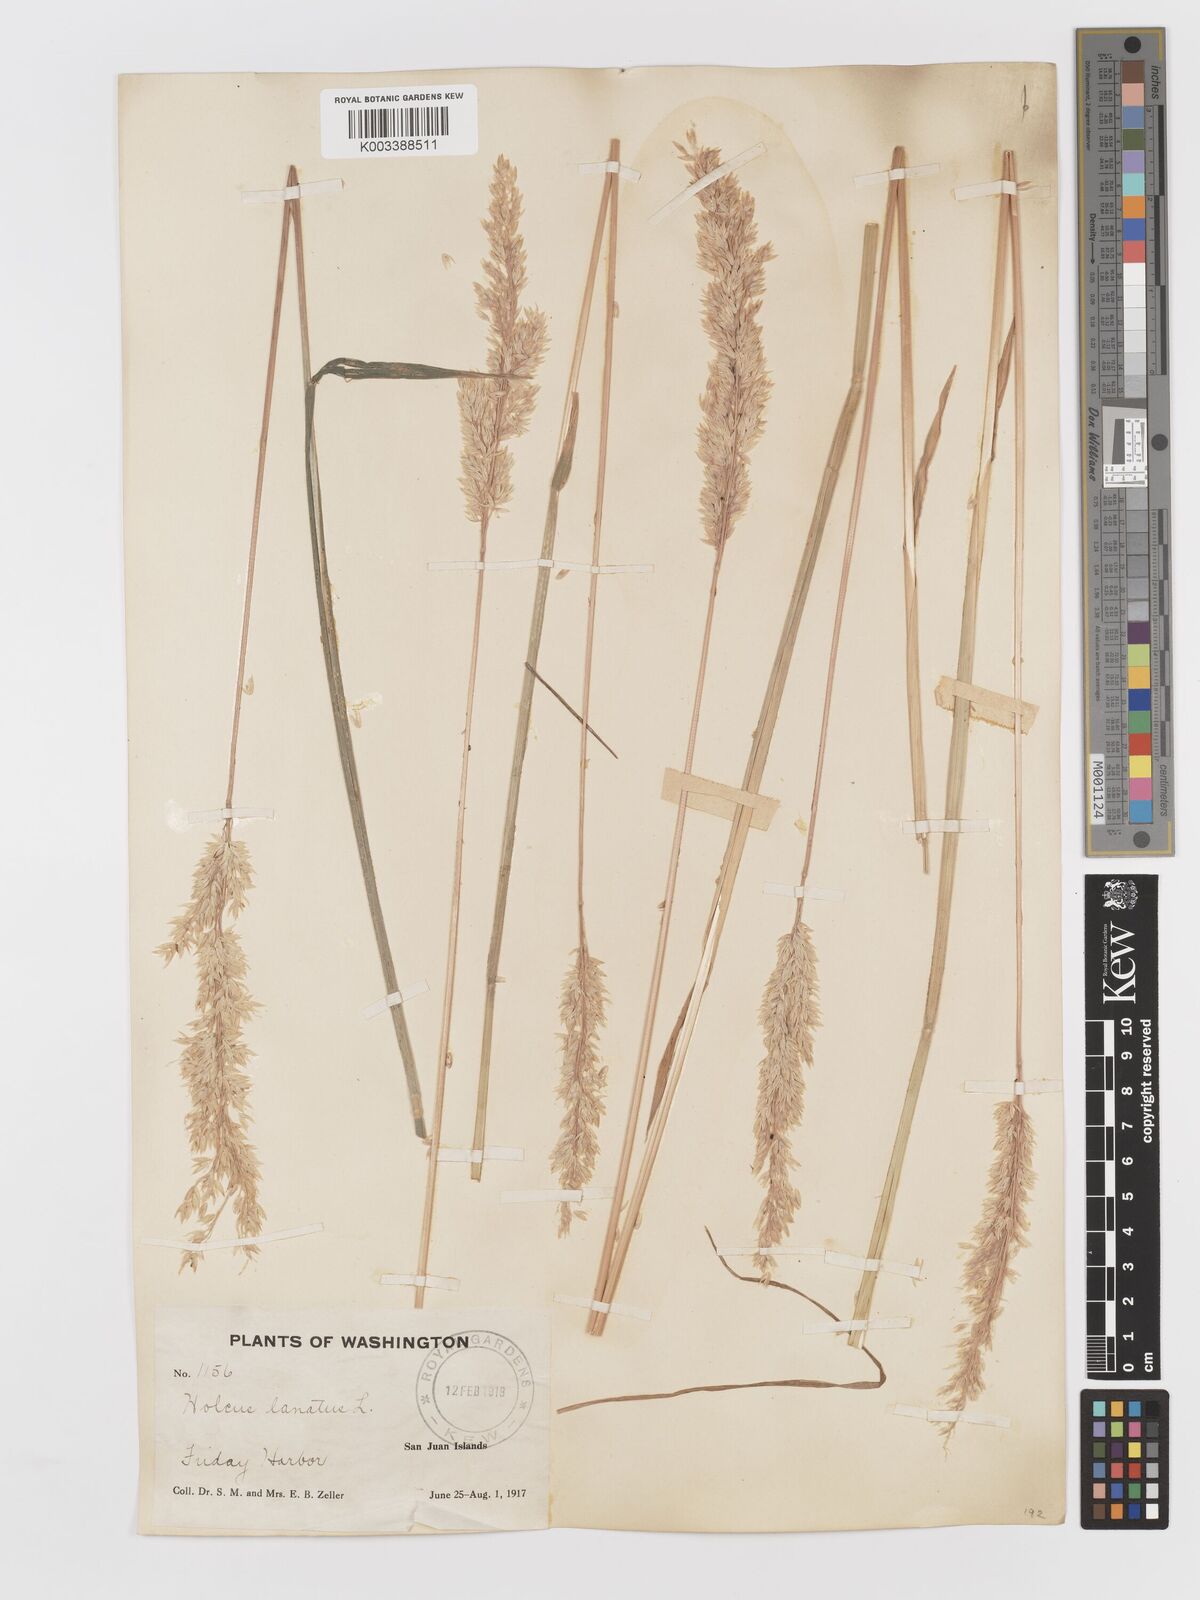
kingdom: Plantae
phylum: Tracheophyta
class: Liliopsida
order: Poales
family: Poaceae
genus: Holcus
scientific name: Holcus lanatus
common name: Yorkshire-fog
